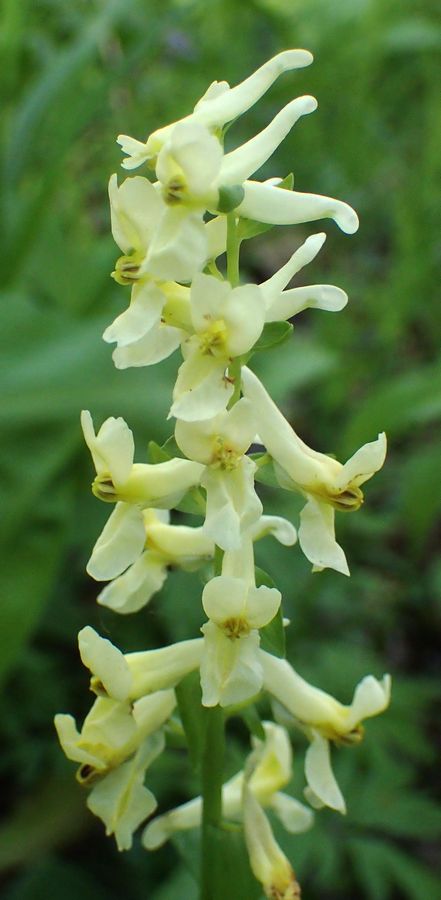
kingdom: Plantae
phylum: Tracheophyta
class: Magnoliopsida
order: Ranunculales
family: Papaveraceae
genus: Corydalis
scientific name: Corydalis cava
